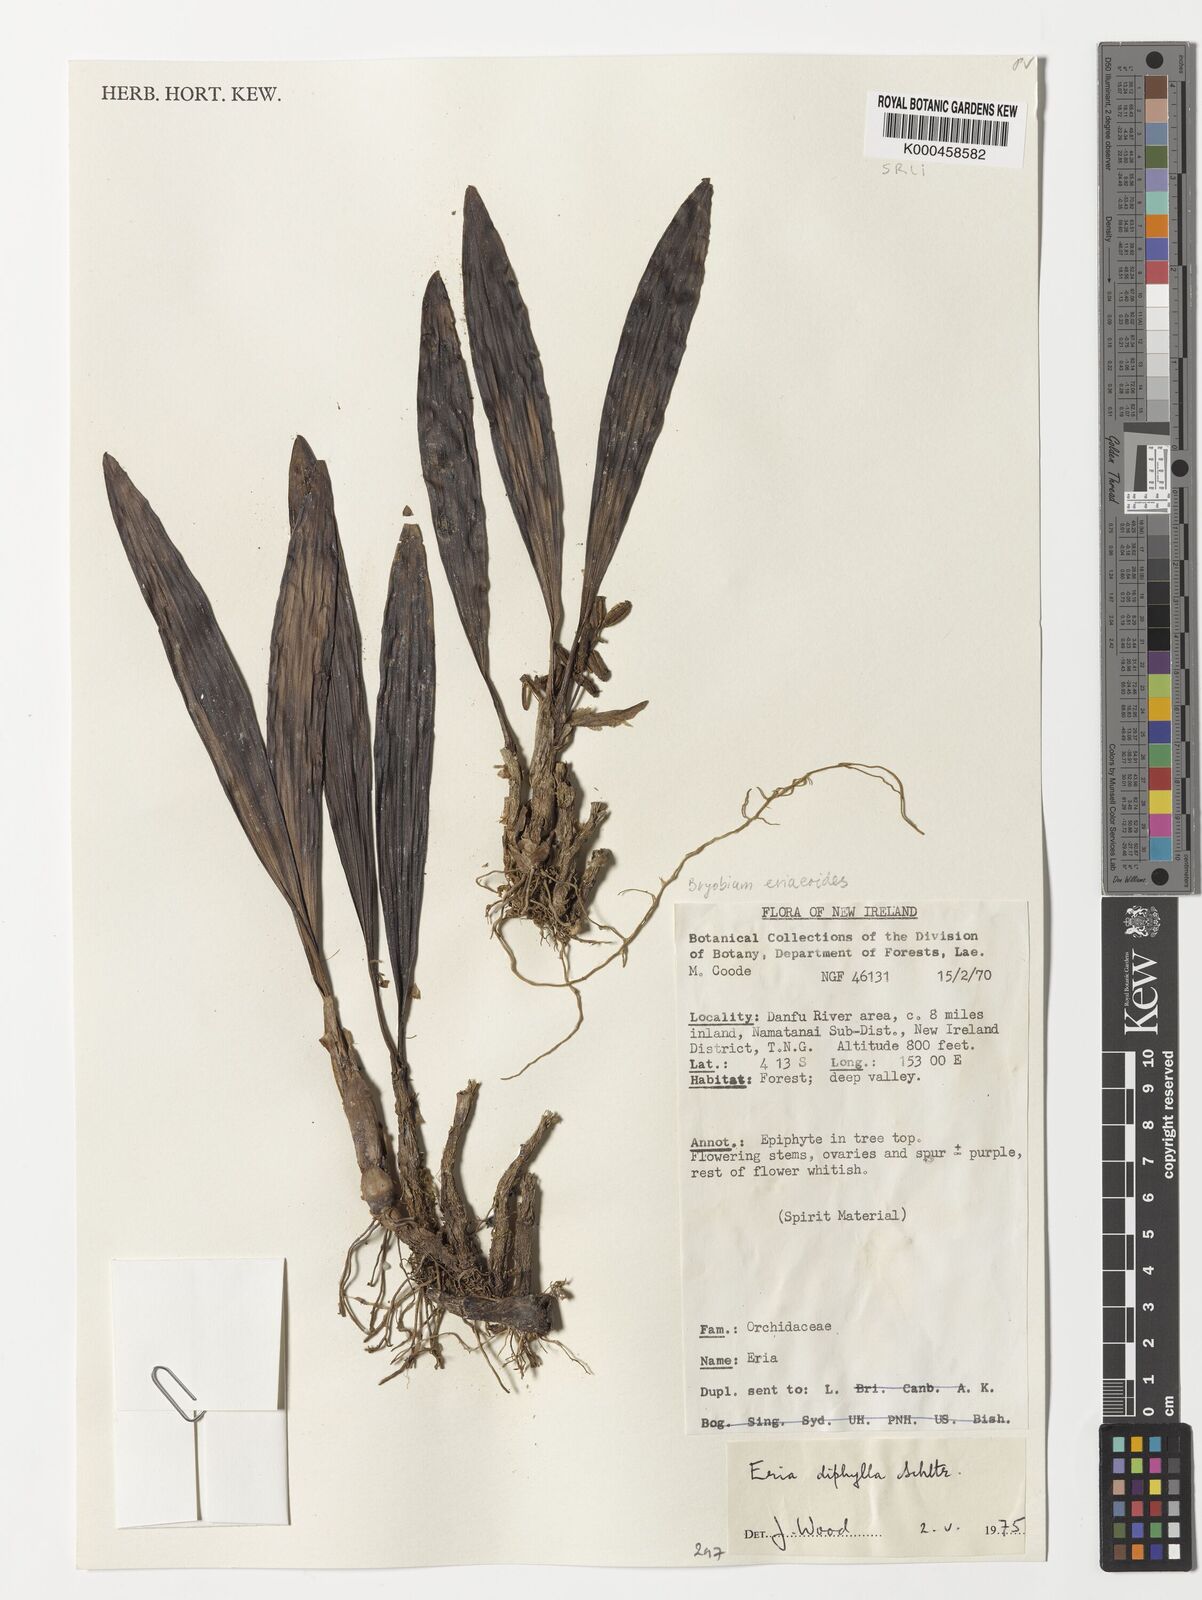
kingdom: Plantae
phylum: Tracheophyta
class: Liliopsida
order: Asparagales
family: Orchidaceae
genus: Bryobium
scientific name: Bryobium eriaeoides
